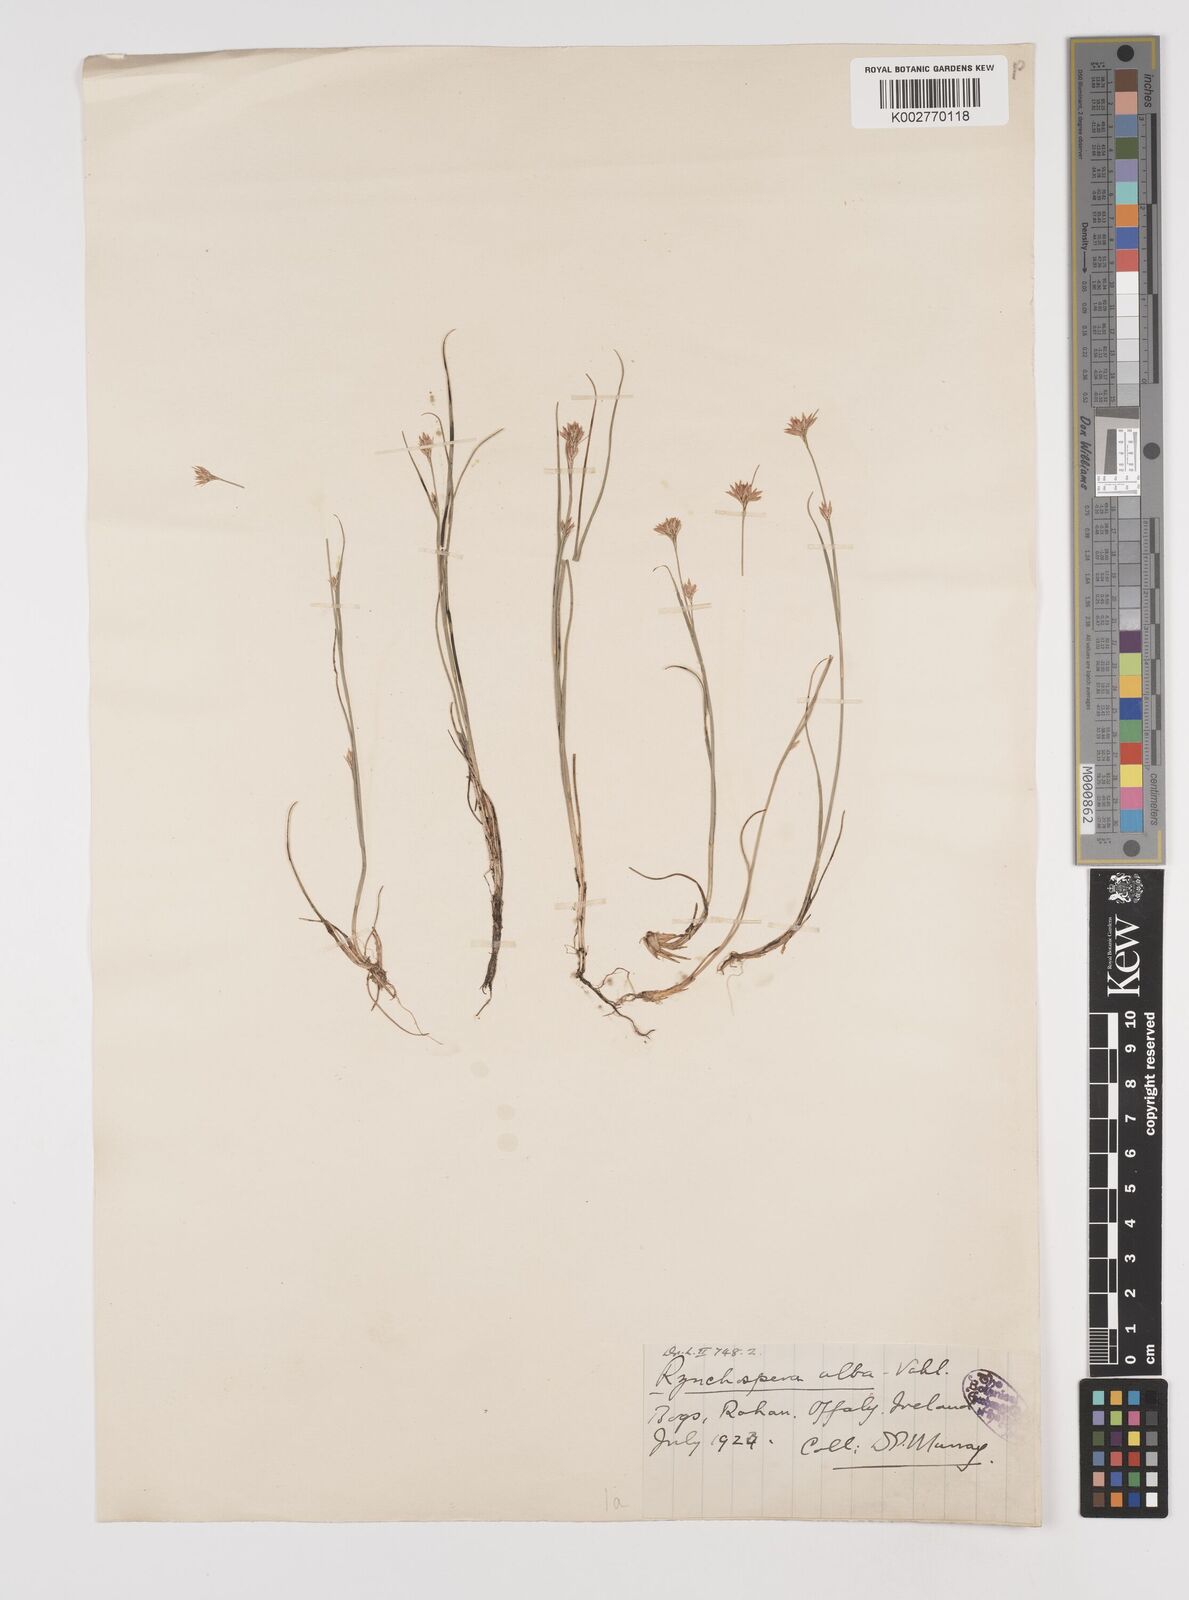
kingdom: Plantae
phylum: Tracheophyta
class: Liliopsida
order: Poales
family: Cyperaceae
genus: Rhynchospora
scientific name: Rhynchospora alba
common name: White beak-sedge
